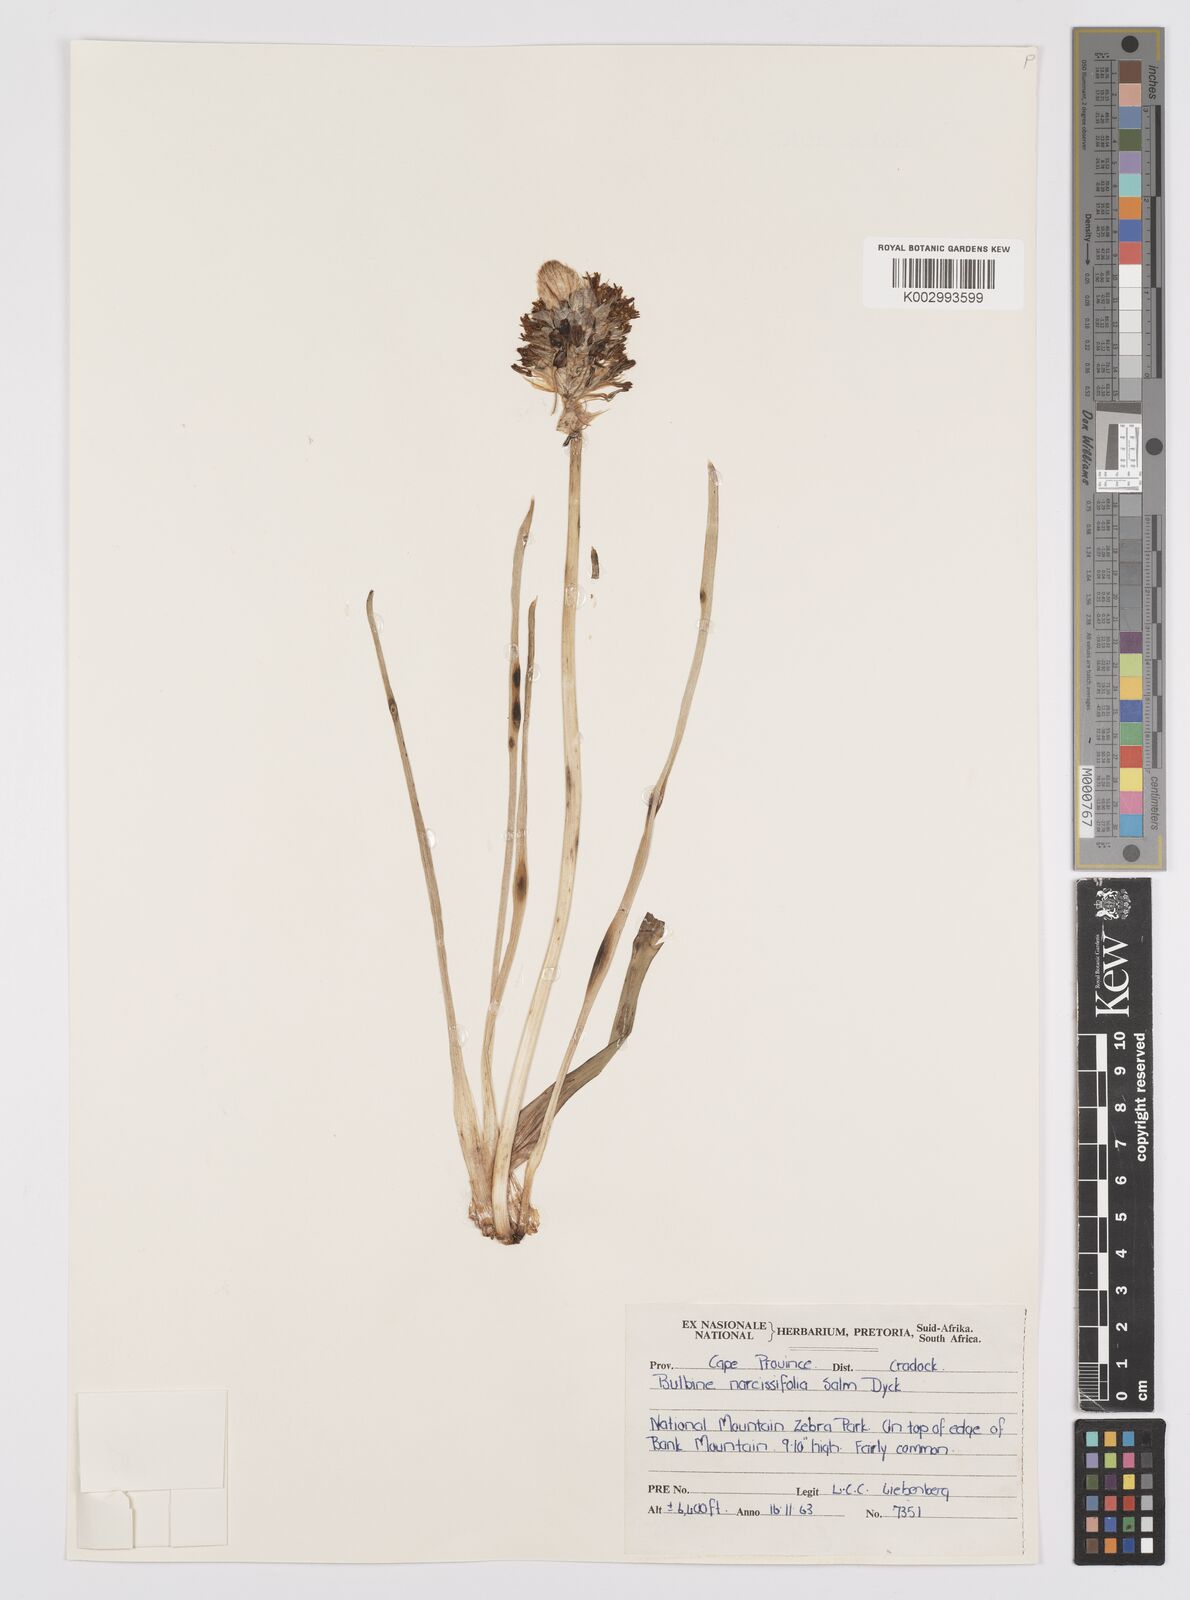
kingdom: Plantae
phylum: Tracheophyta
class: Liliopsida
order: Asparagales
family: Asphodelaceae
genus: Bulbine
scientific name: Bulbine narcissifolia
